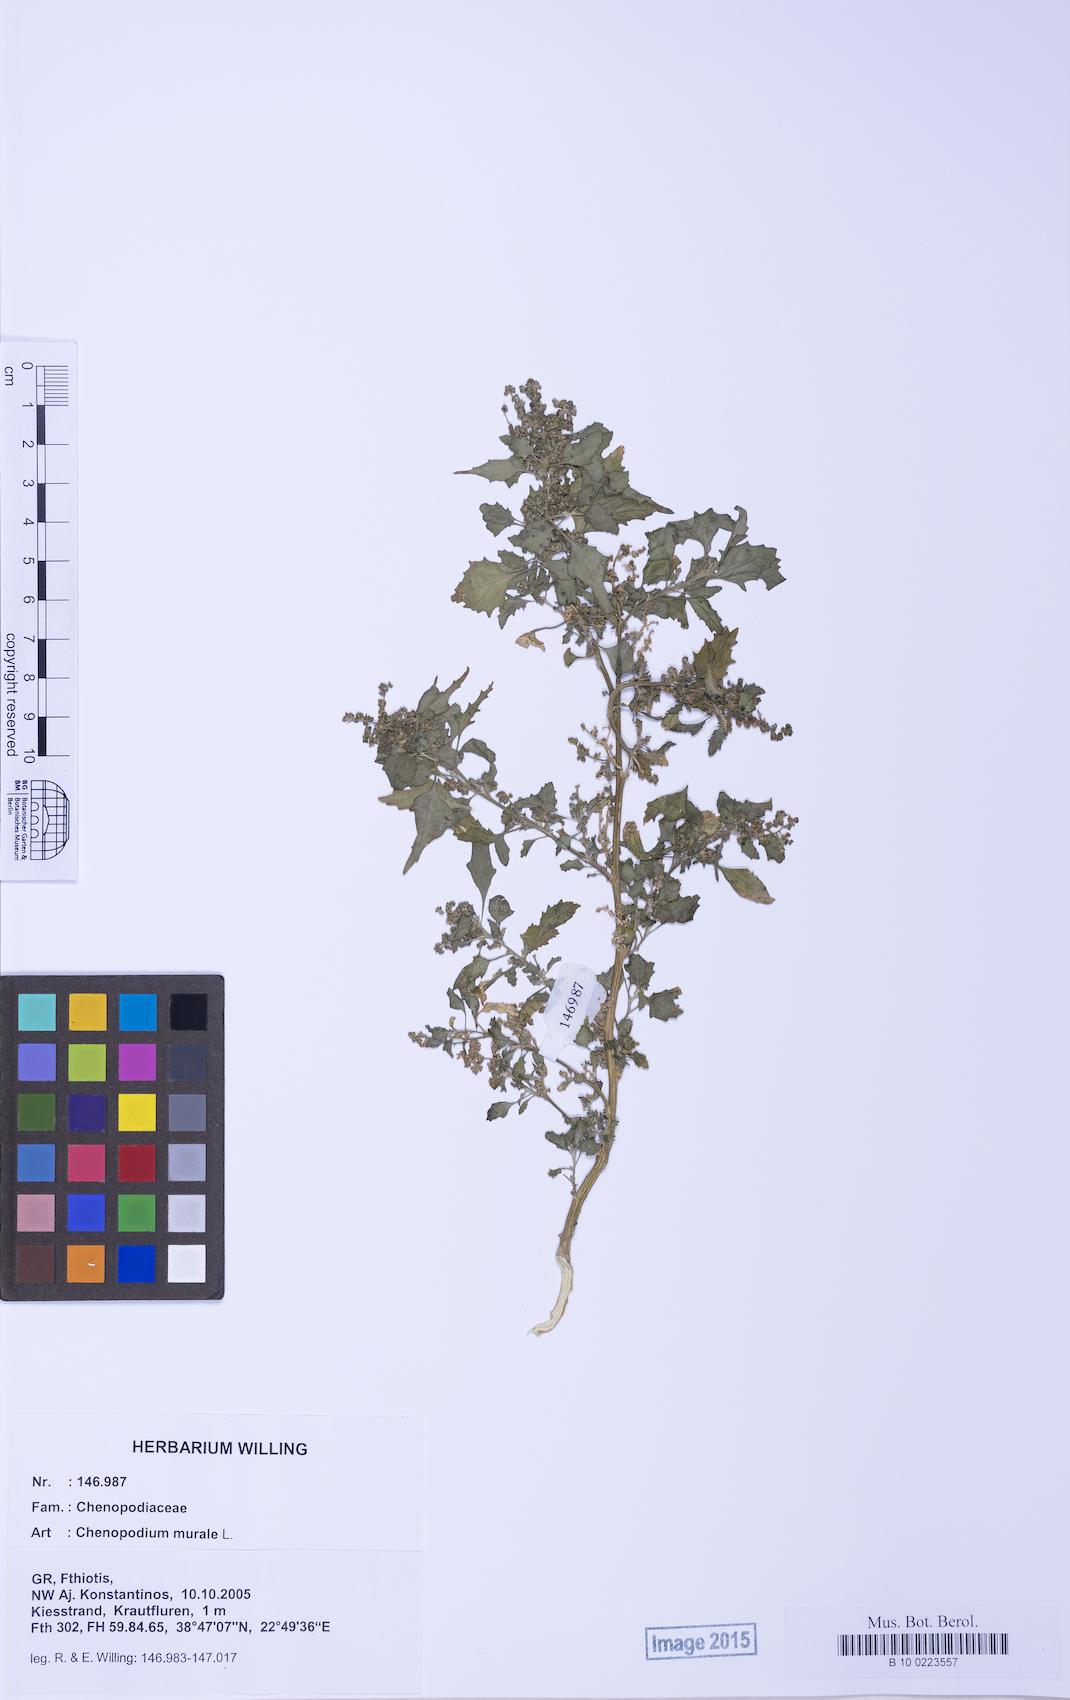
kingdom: Plantae
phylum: Tracheophyta
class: Magnoliopsida
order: Caryophyllales
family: Amaranthaceae
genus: Chenopodiastrum
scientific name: Chenopodiastrum murale
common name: Sowbane
